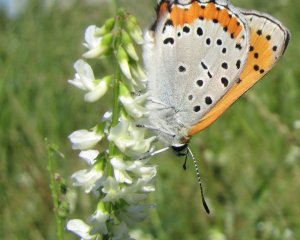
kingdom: Animalia
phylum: Arthropoda
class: Insecta
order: Lepidoptera
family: Sesiidae
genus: Sesia
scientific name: Sesia Lycaena hyllus
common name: Bronze Copper
